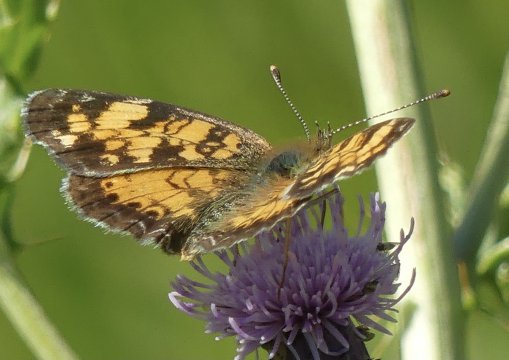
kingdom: Animalia
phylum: Arthropoda
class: Insecta
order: Lepidoptera
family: Nymphalidae
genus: Phyciodes
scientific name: Phyciodes
